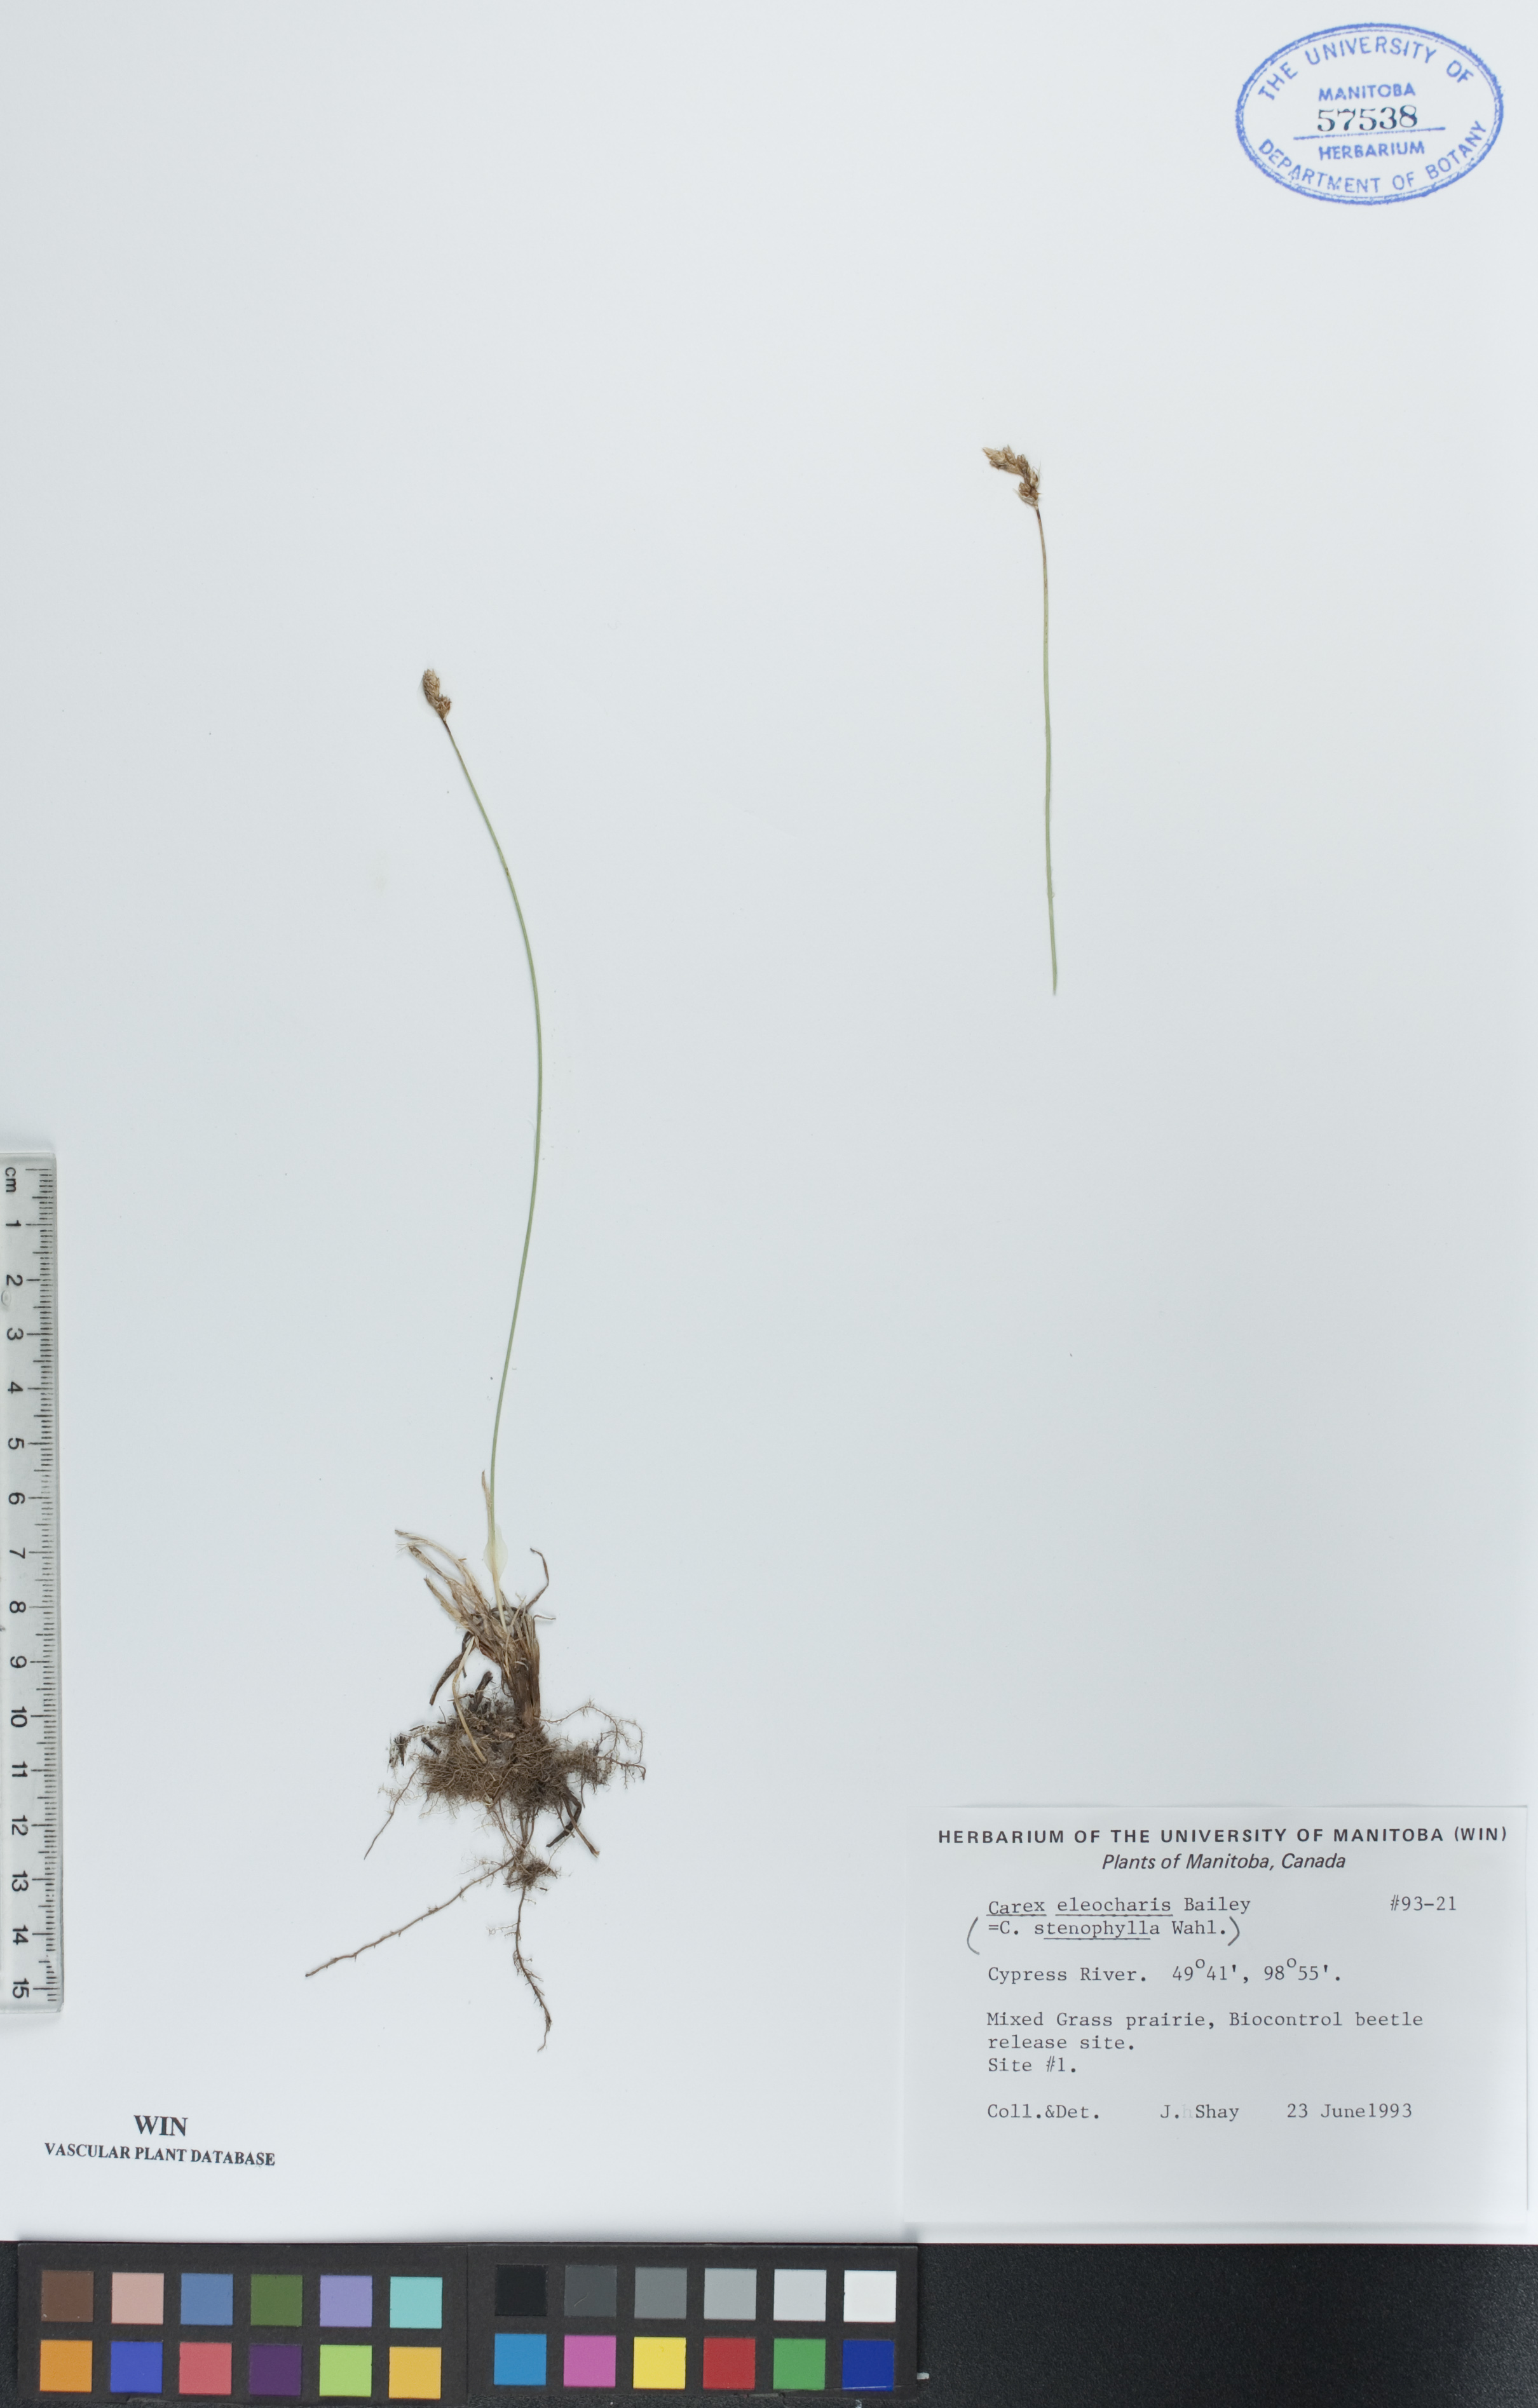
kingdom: Plantae
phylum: Tracheophyta
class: Liliopsida
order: Poales
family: Cyperaceae
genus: Carex
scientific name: Carex duriuscula
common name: Involute-leaved sedge
